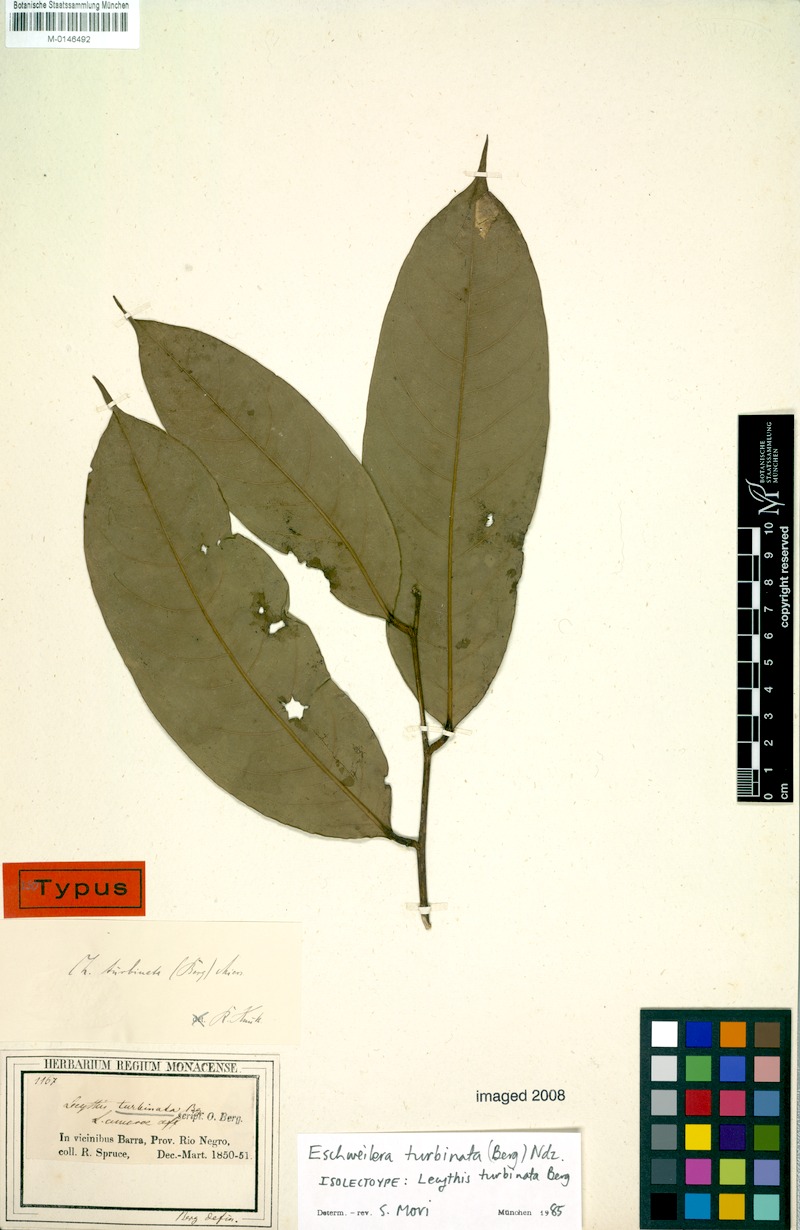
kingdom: Plantae
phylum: Tracheophyta
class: Magnoliopsida
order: Ericales
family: Lecythidaceae
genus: Eschweilera
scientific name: Eschweilera albiflora
